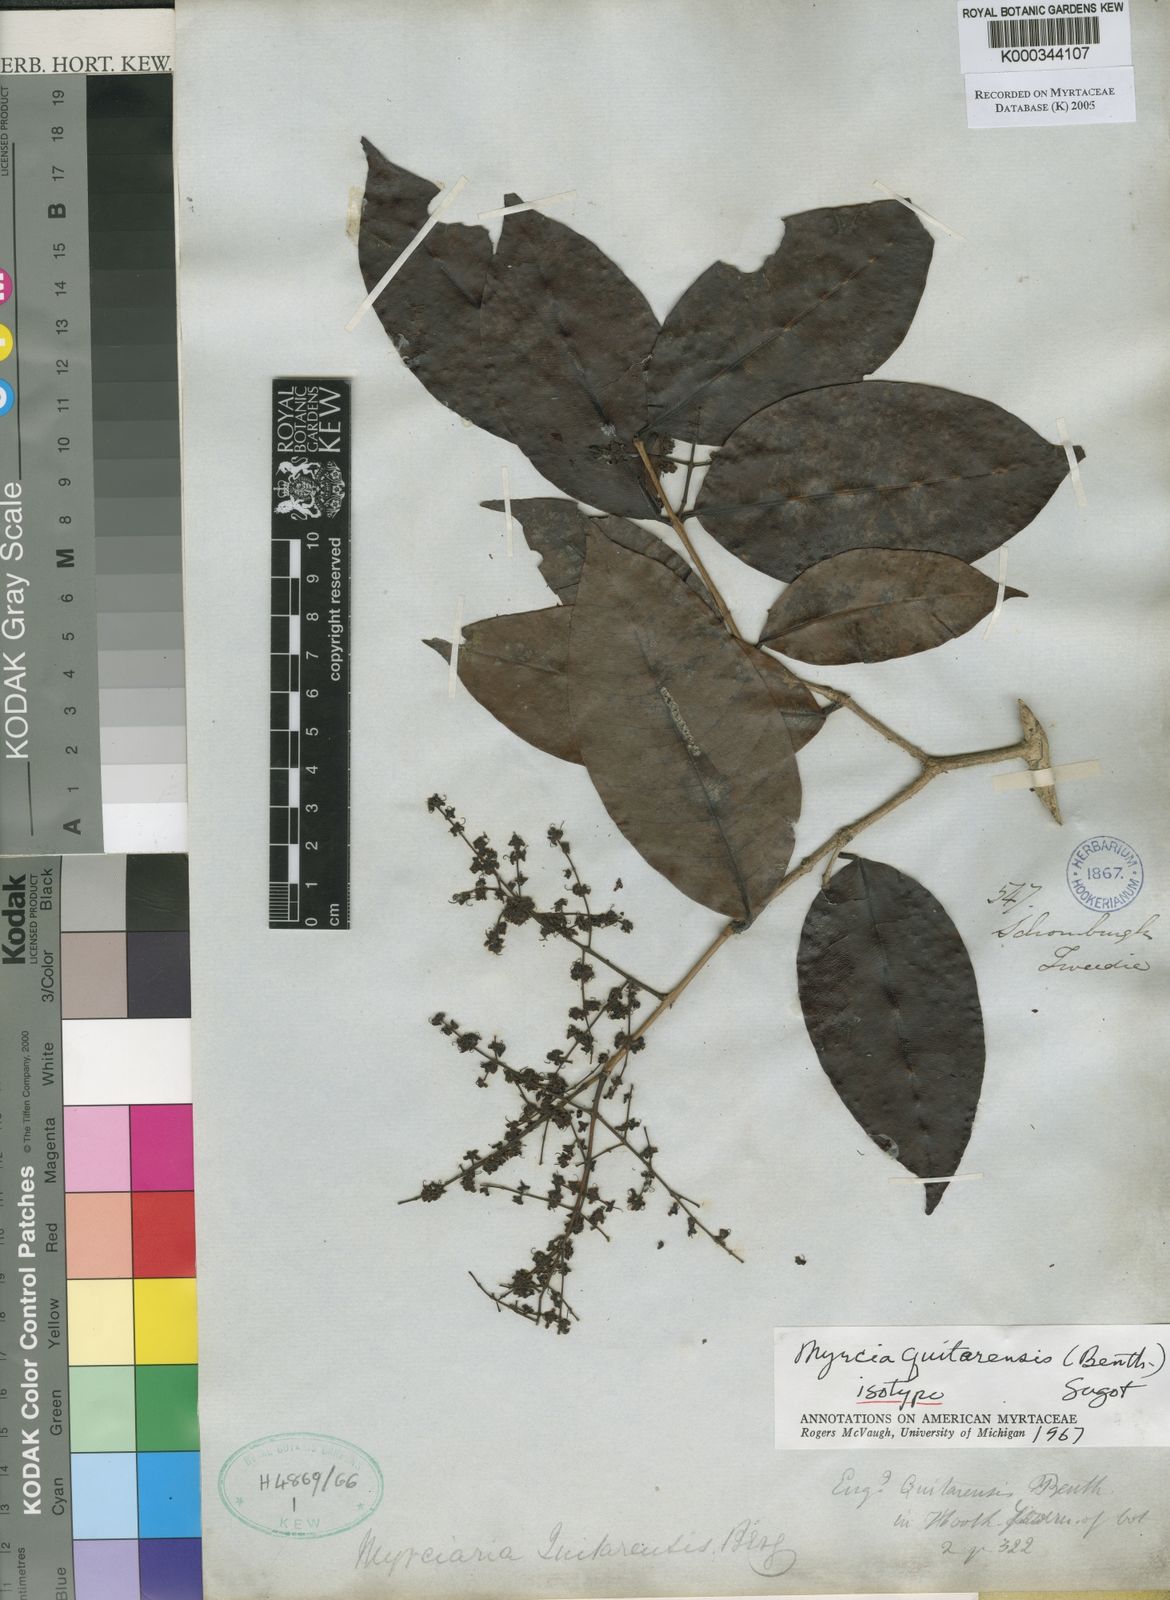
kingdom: Plantae
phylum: Tracheophyta
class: Magnoliopsida
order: Myrtales
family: Myrtaceae
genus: Myrcia
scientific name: Myrcia quitarensis
